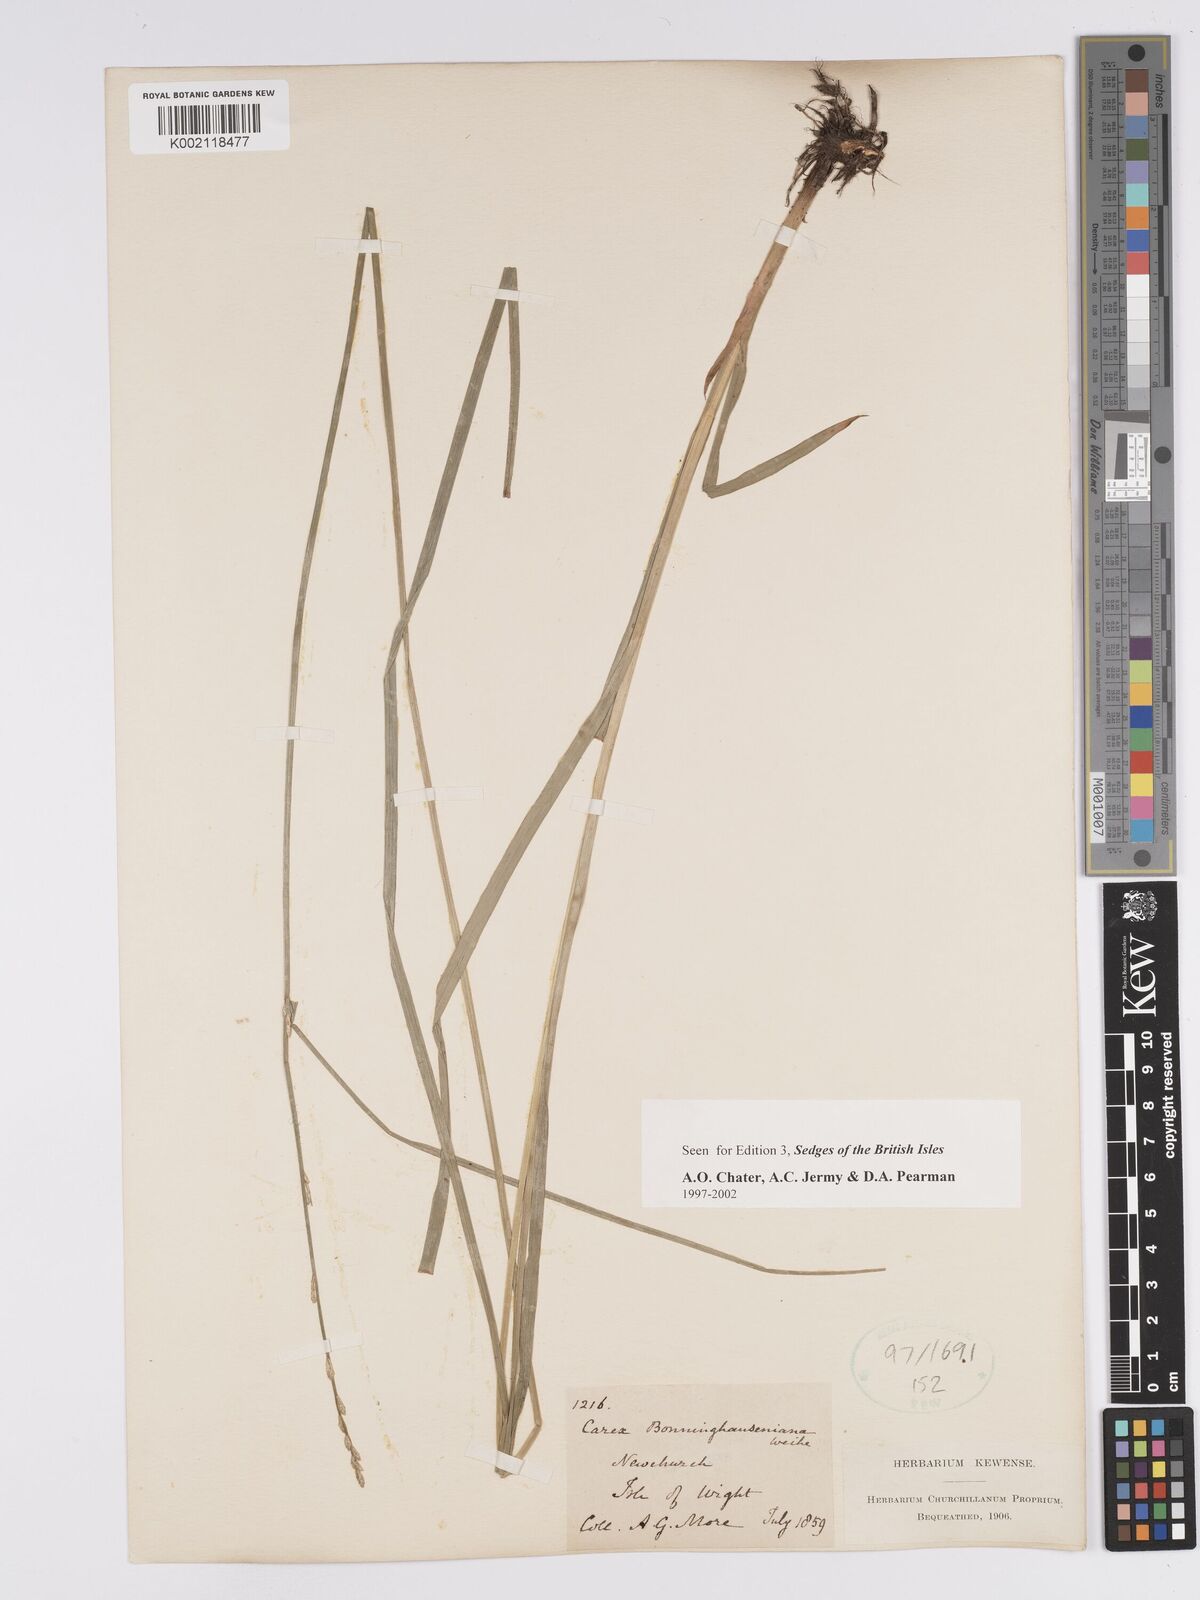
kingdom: Plantae
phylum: Tracheophyta
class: Liliopsida
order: Poales
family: Cyperaceae
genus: Carex
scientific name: Carex boenninghausiana
